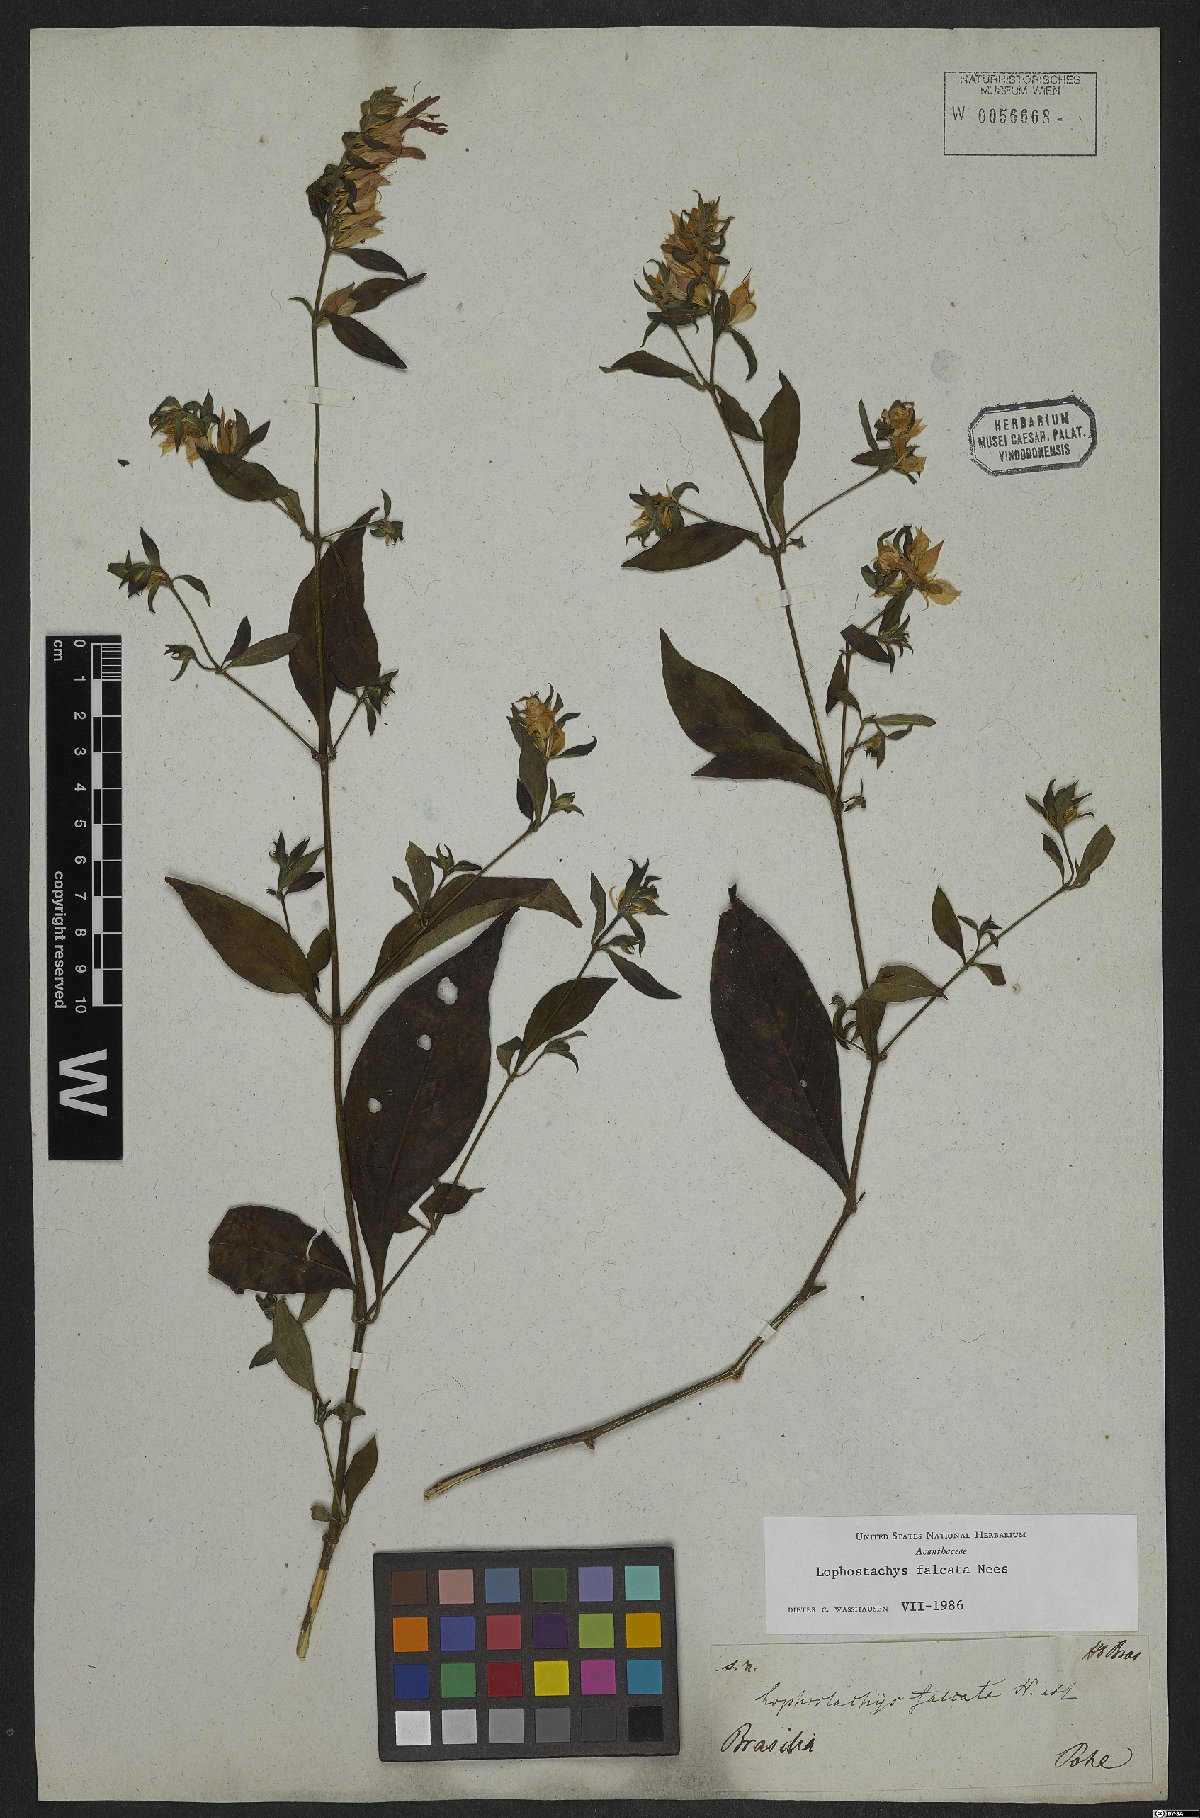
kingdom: Plantae
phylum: Tracheophyta
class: Magnoliopsida
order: Lamiales
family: Acanthaceae
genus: Lepidagathis
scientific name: Lepidagathis Lophostachys falcata
